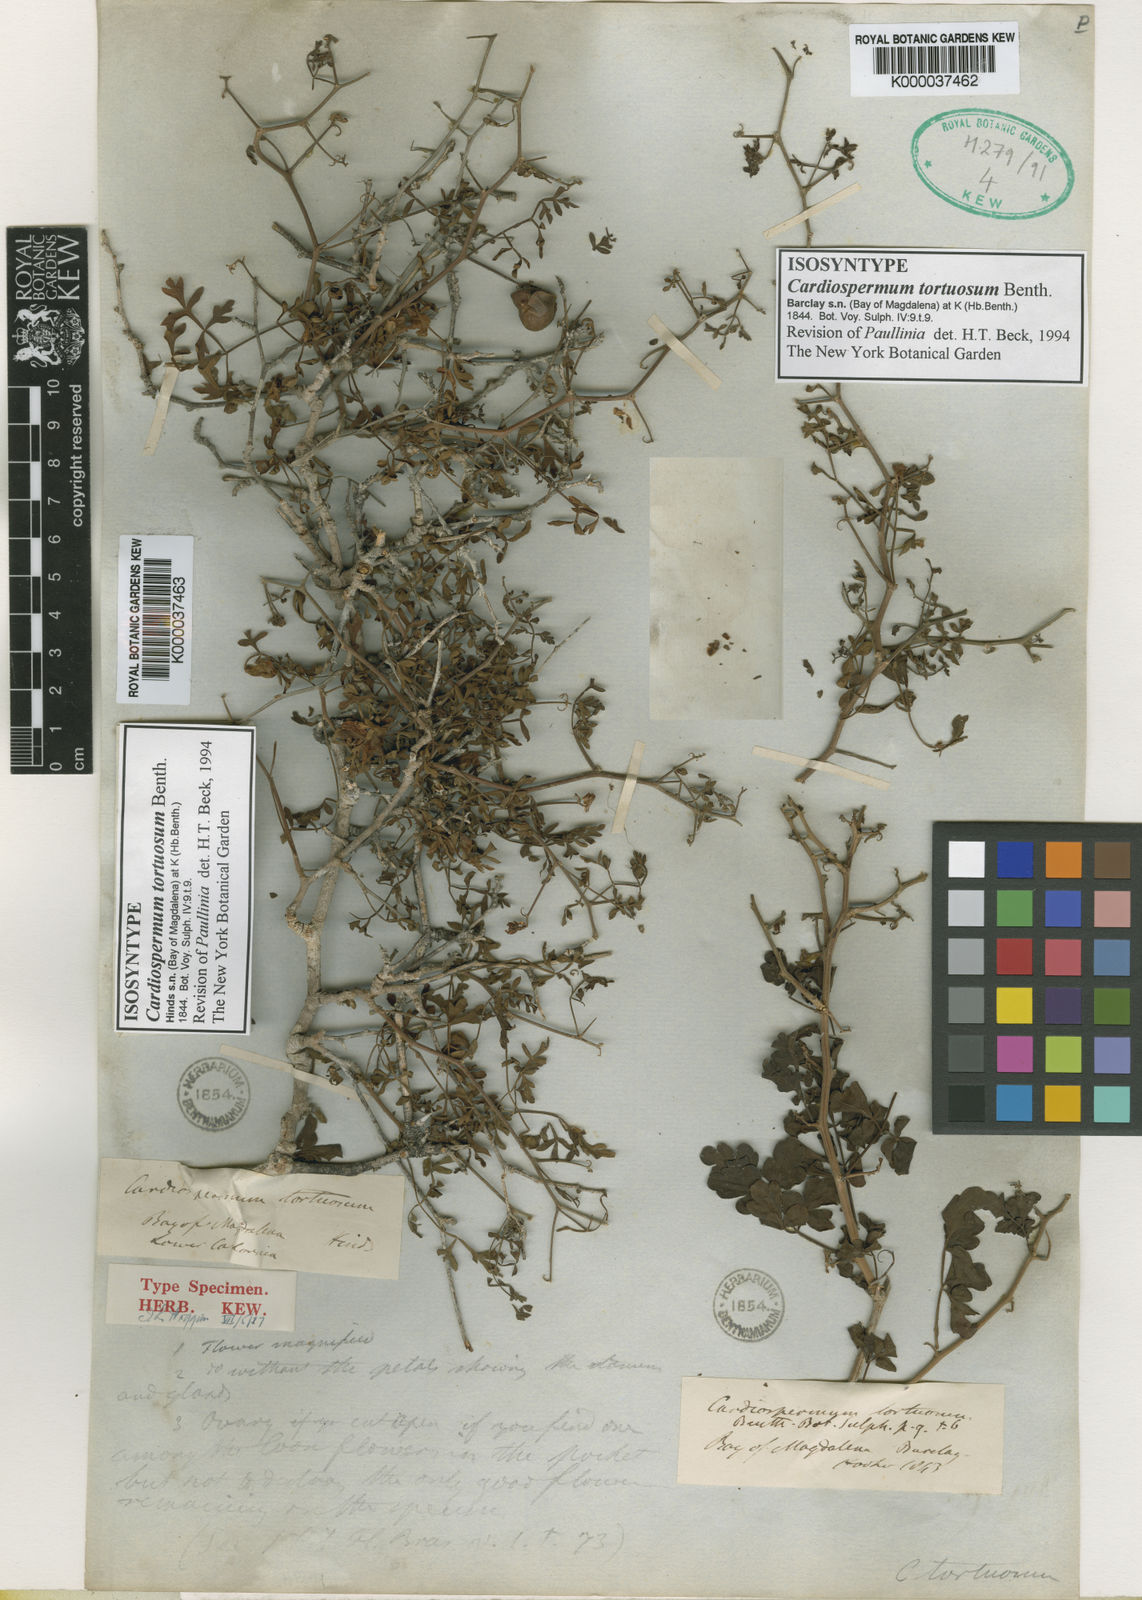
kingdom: Plantae
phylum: Tracheophyta
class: Magnoliopsida
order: Sapindales
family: Sapindaceae
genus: Serjania
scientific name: Serjania tortuosa
